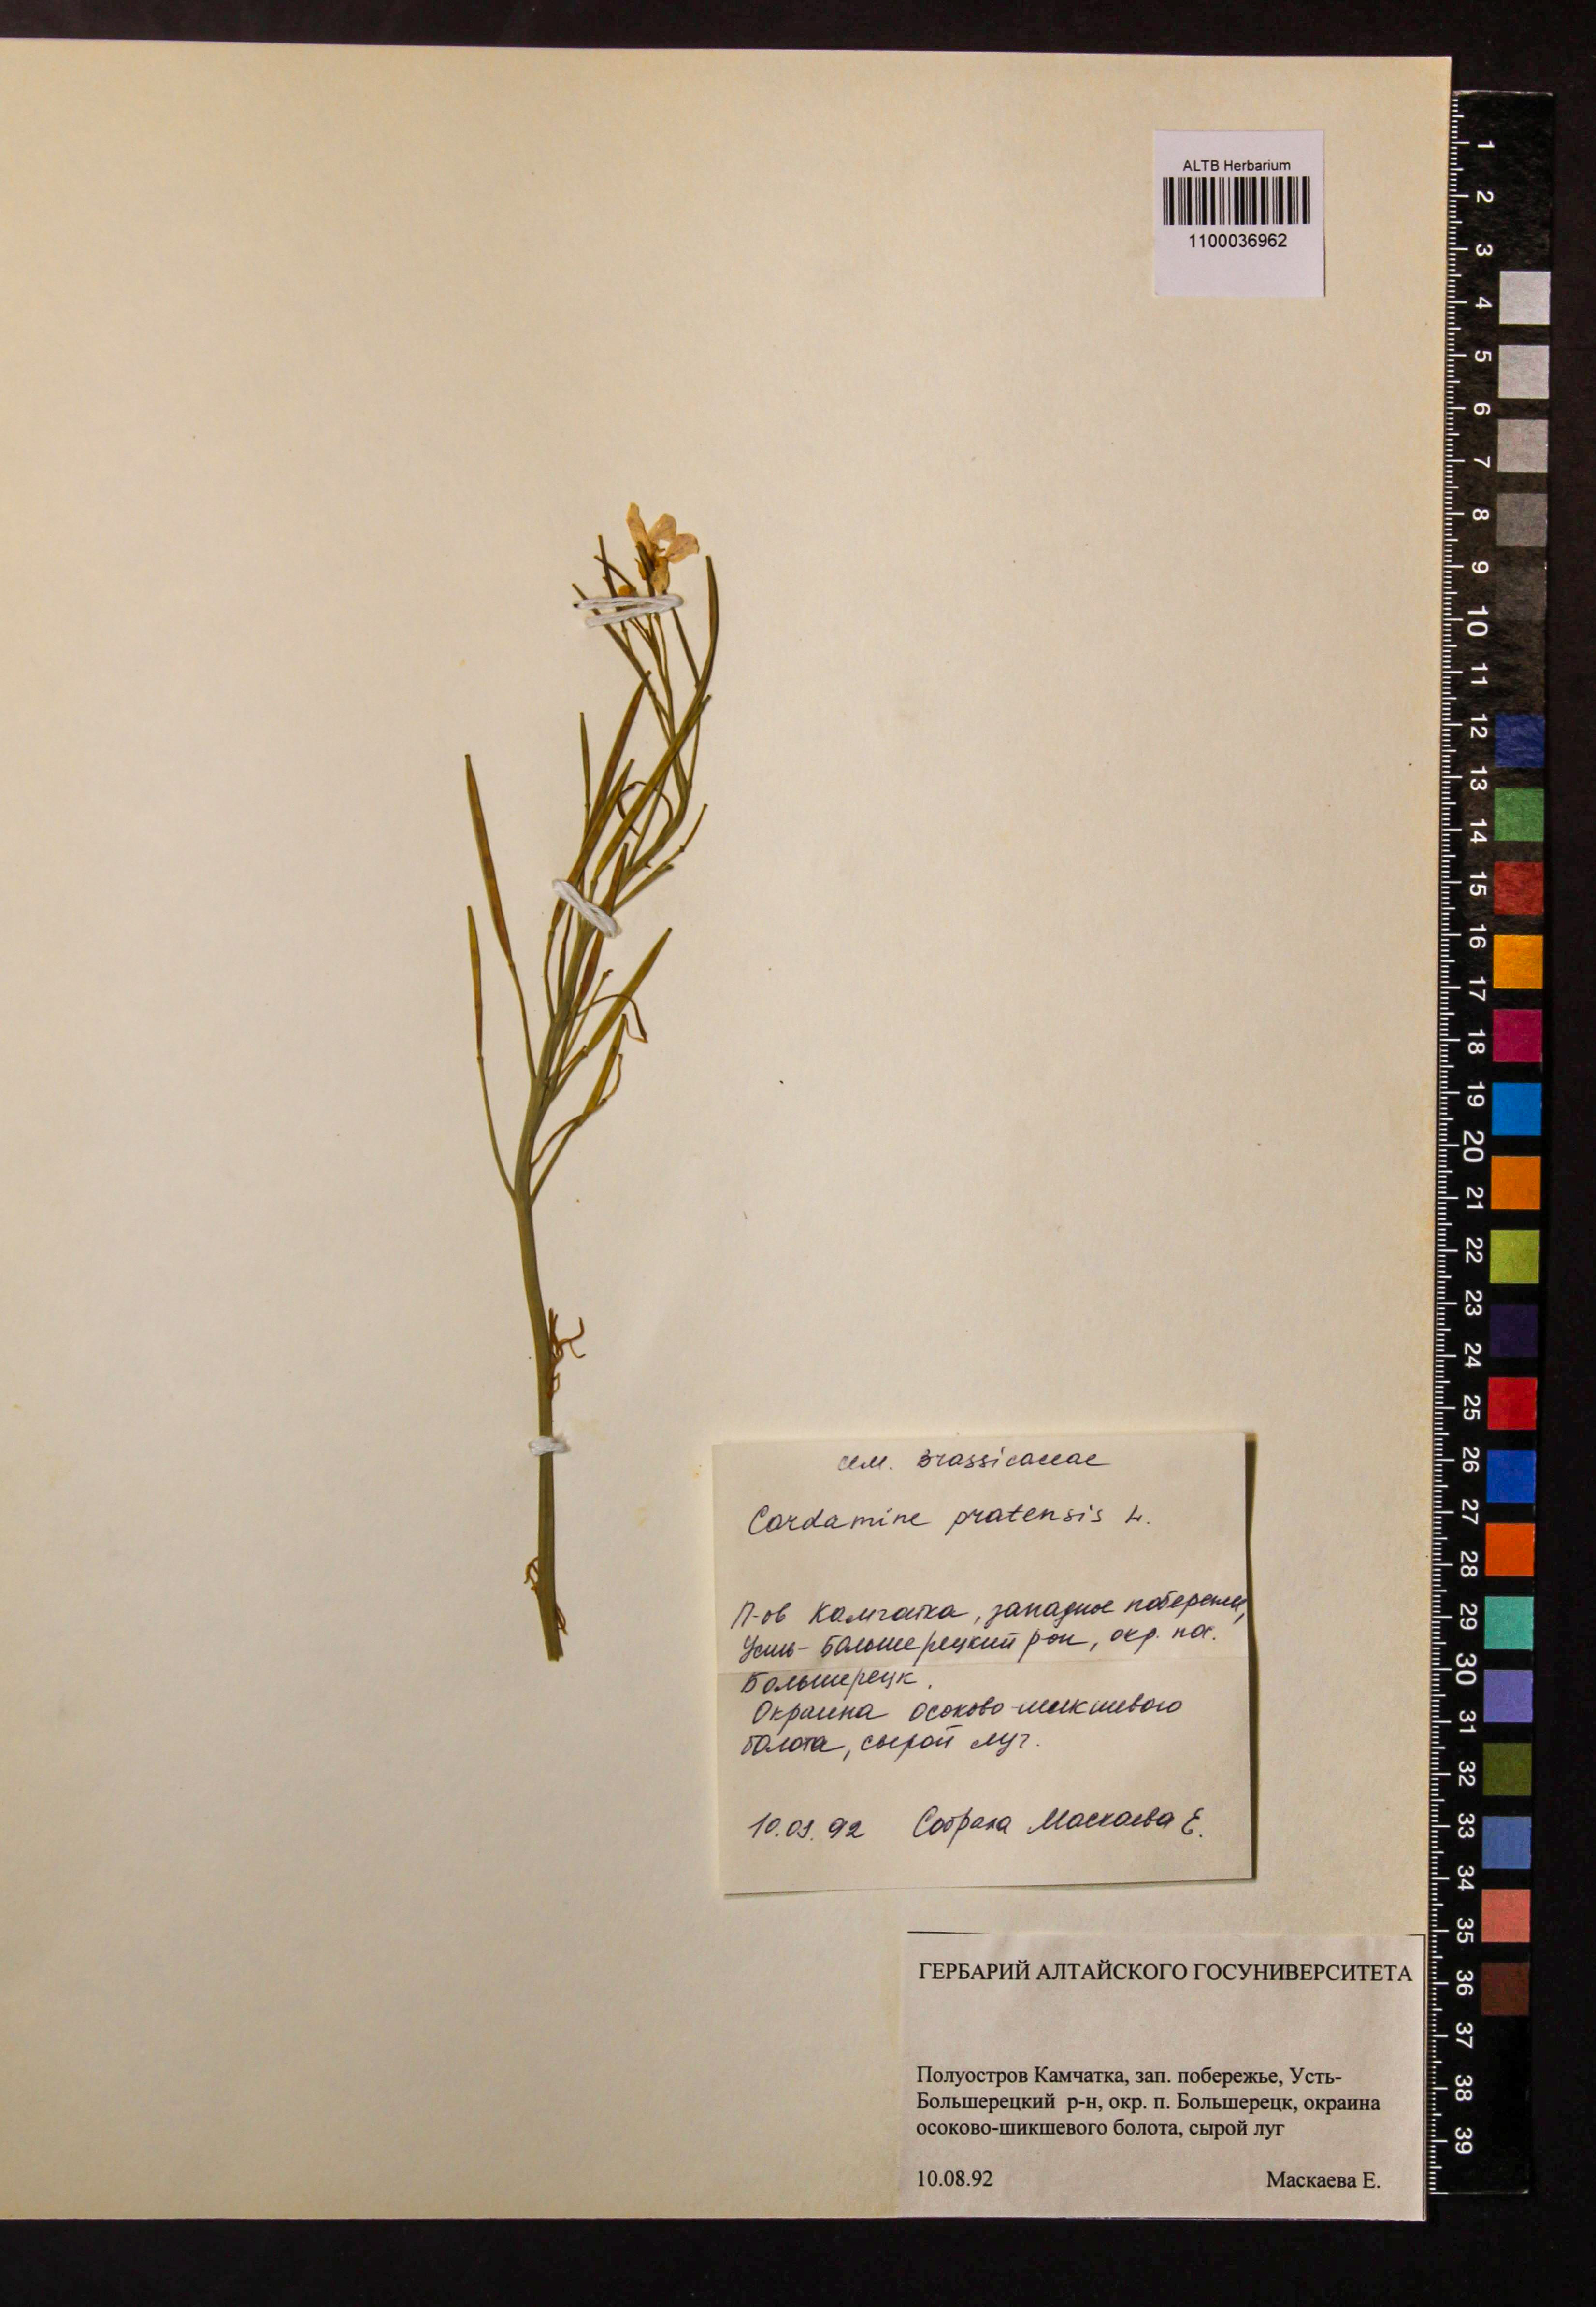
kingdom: Plantae
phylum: Tracheophyta
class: Magnoliopsida
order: Brassicales
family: Brassicaceae
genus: Cardamine
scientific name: Cardamine pratensis
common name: Cuckoo flower
